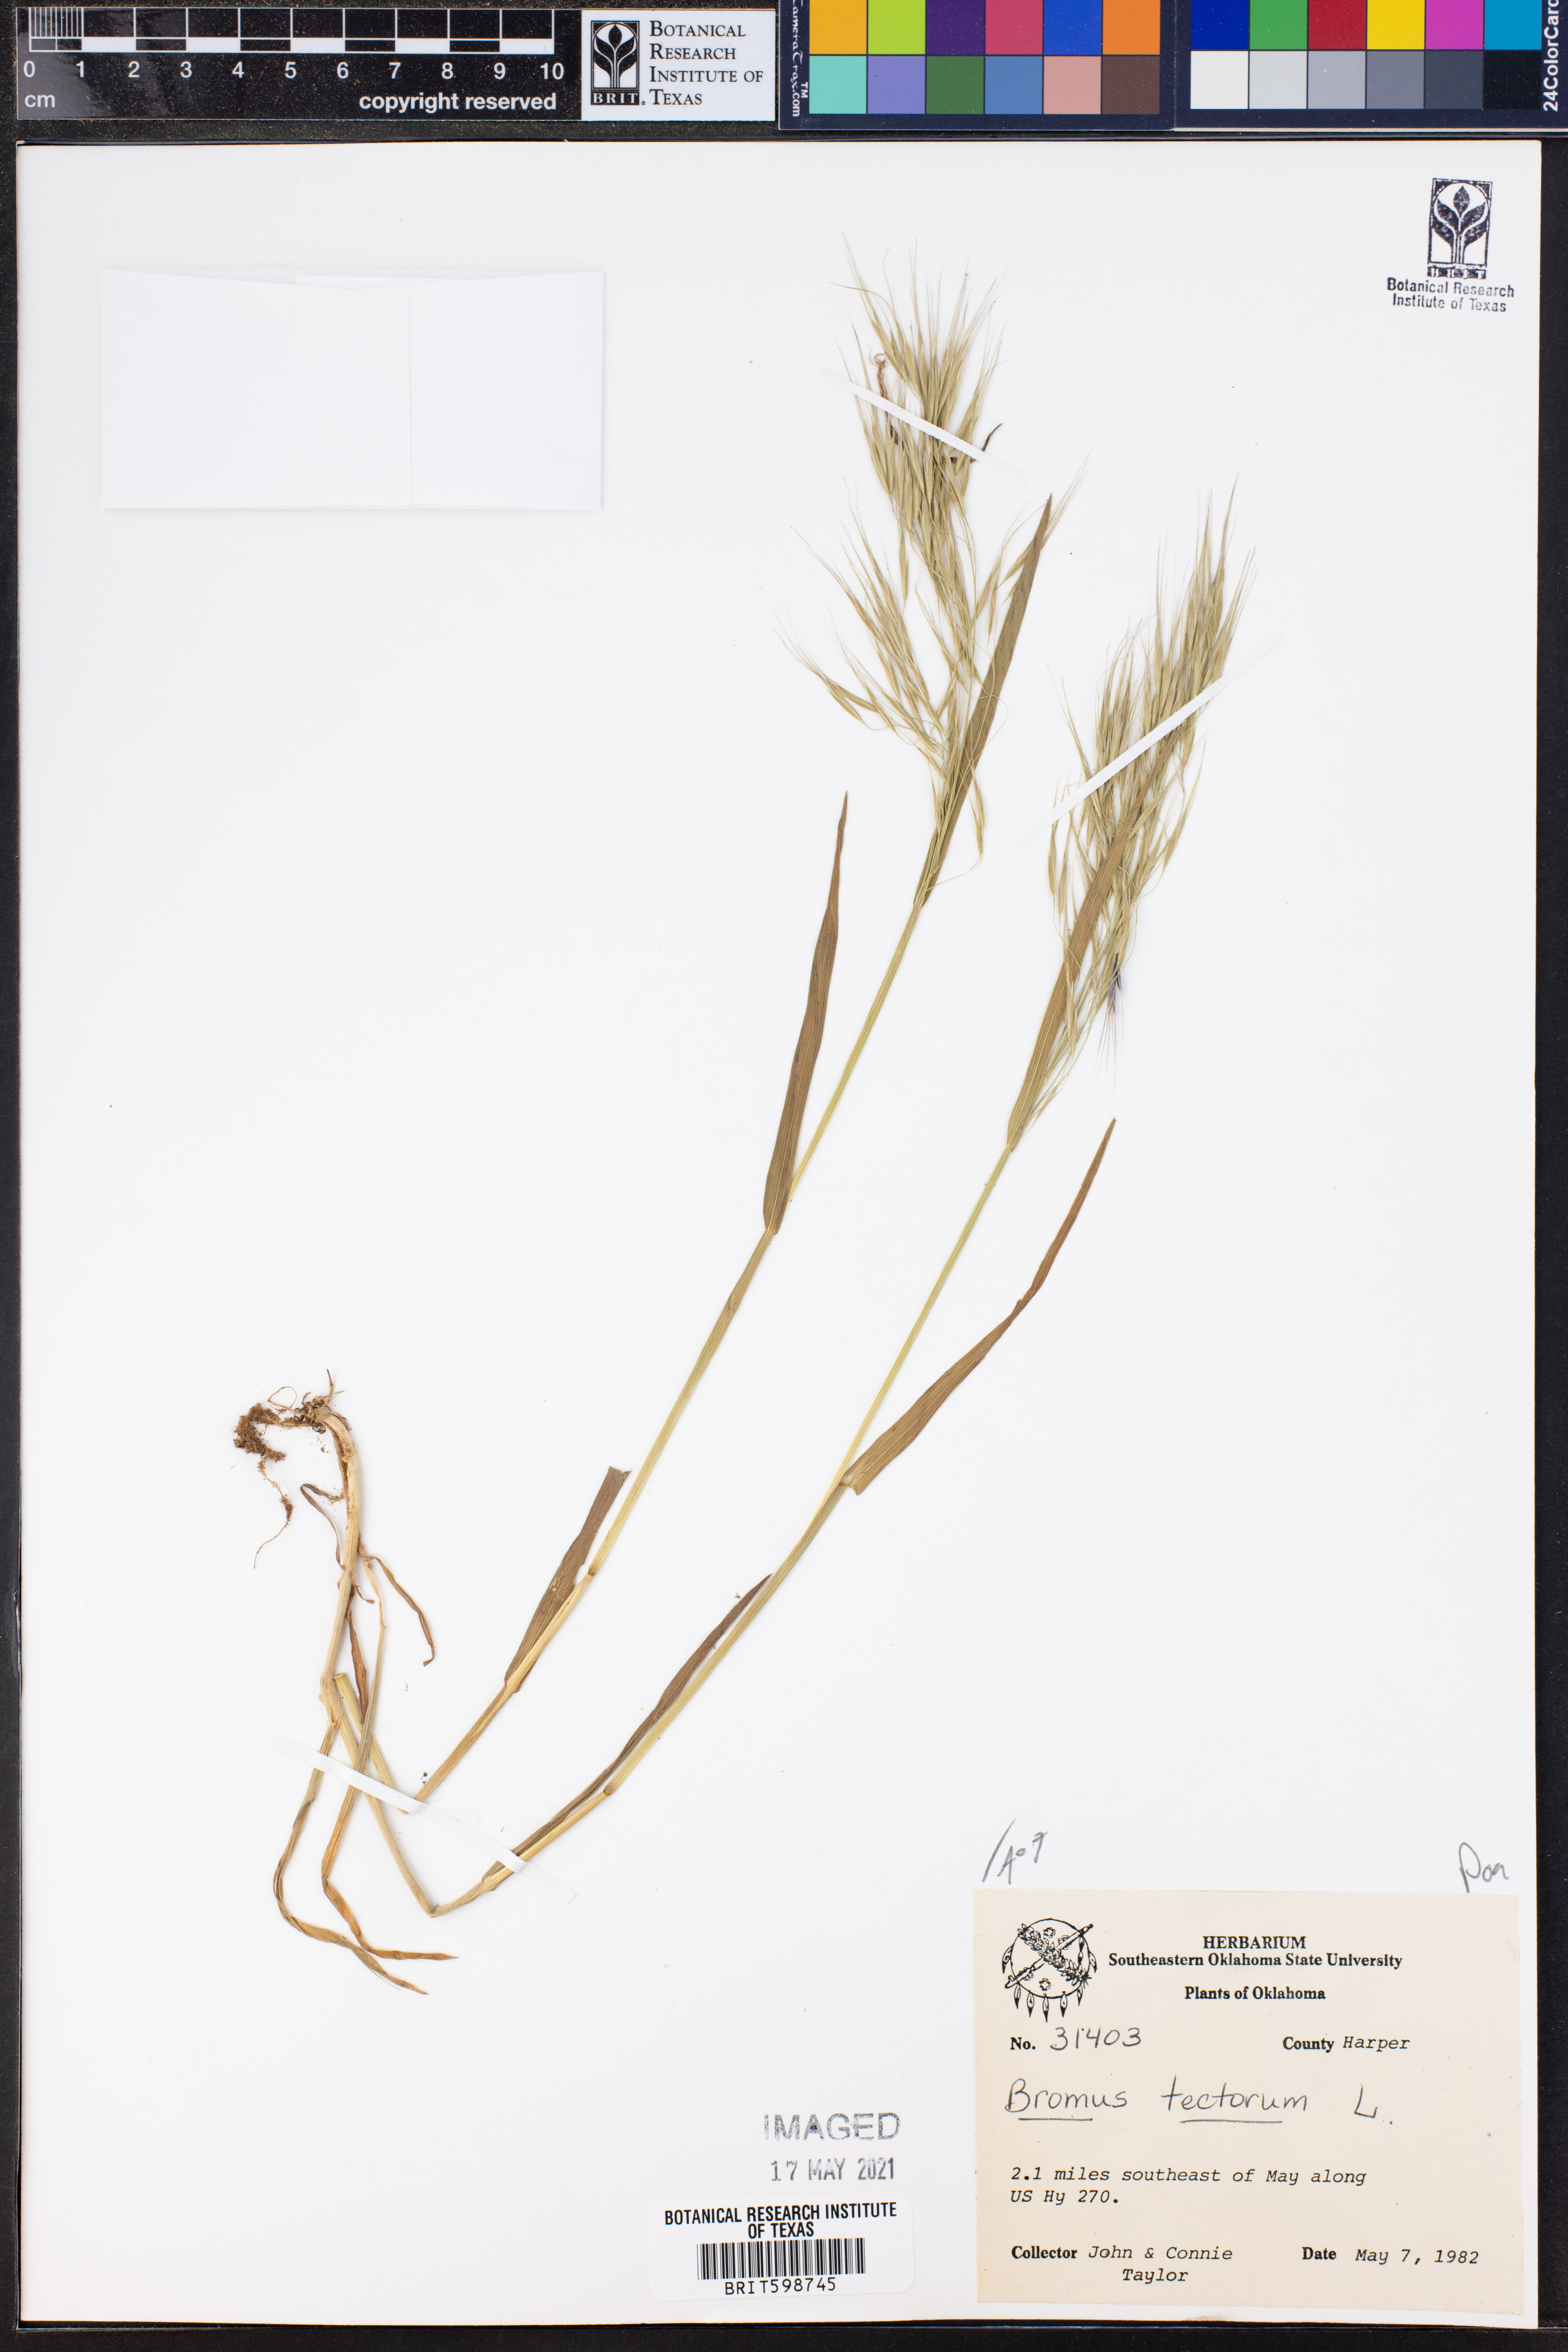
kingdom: Plantae
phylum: Tracheophyta
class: Liliopsida
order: Poales
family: Poaceae
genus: Bromus
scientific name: Bromus tectorum
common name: Cheatgrass
